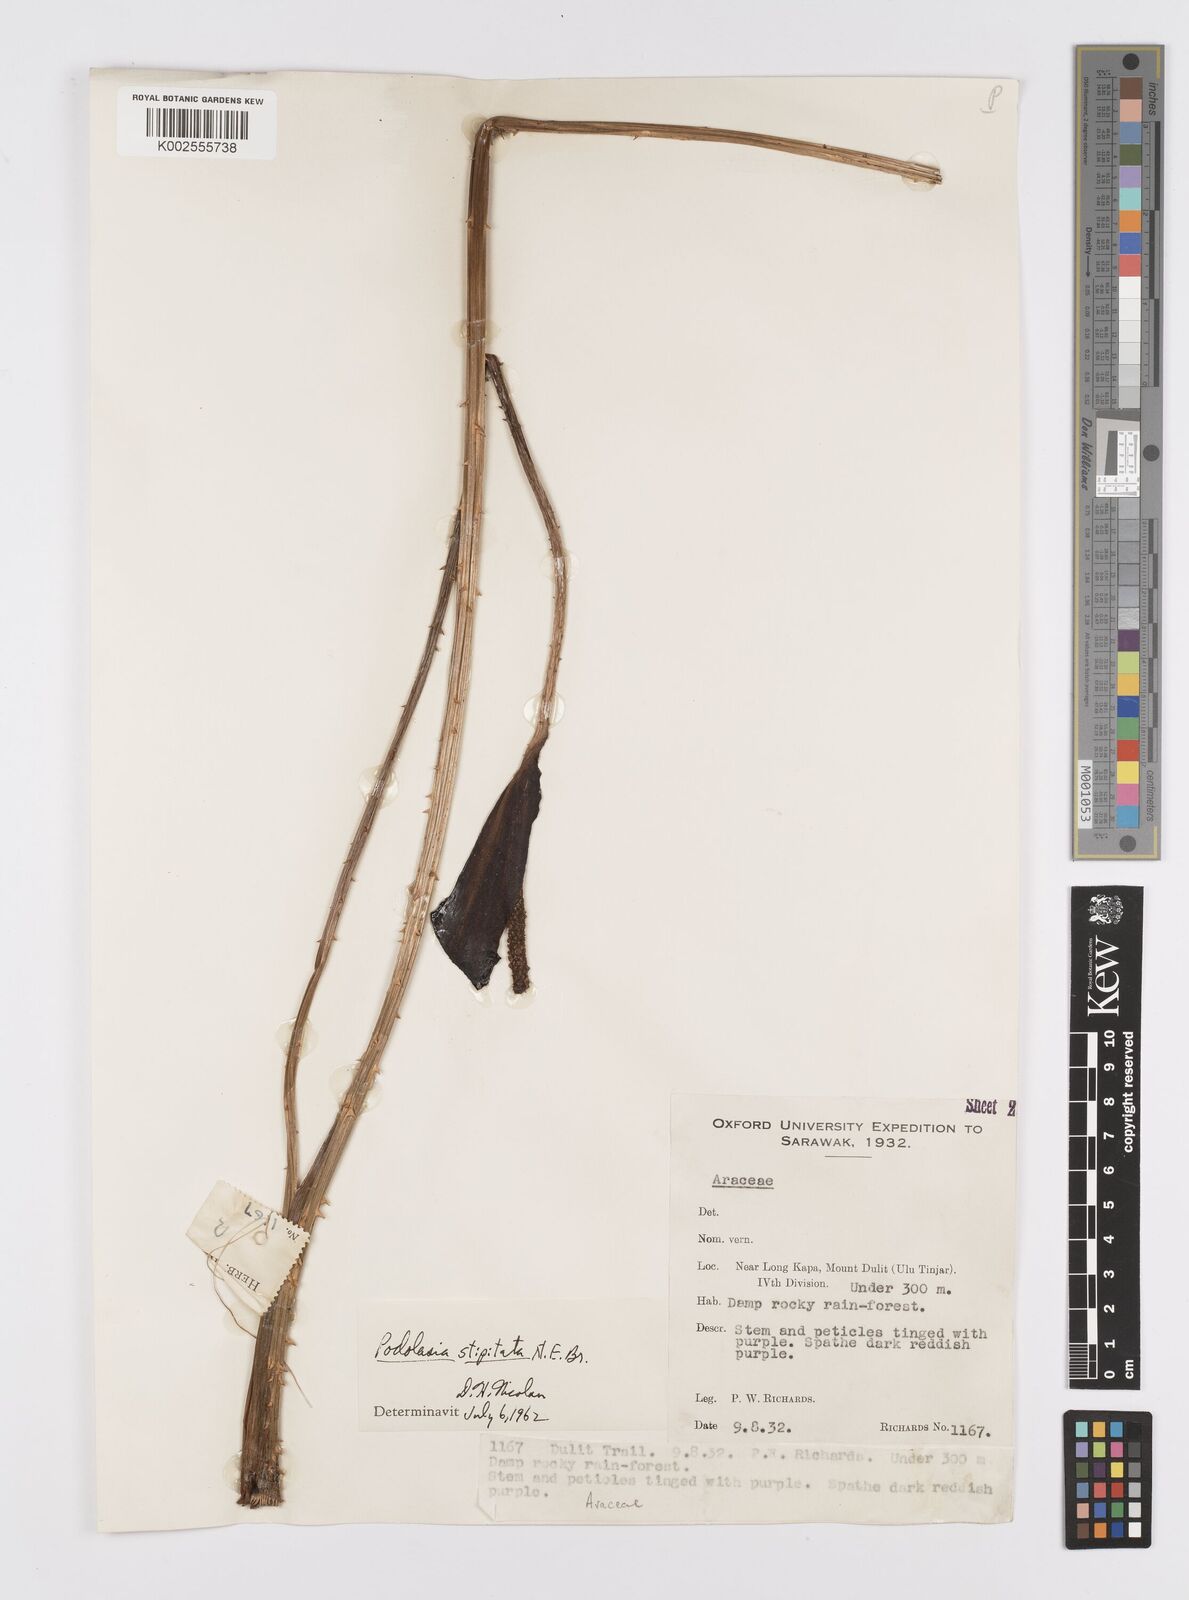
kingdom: Plantae
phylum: Tracheophyta
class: Liliopsida
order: Alismatales
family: Araceae
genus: Podolasia
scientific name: Podolasia stipitata
